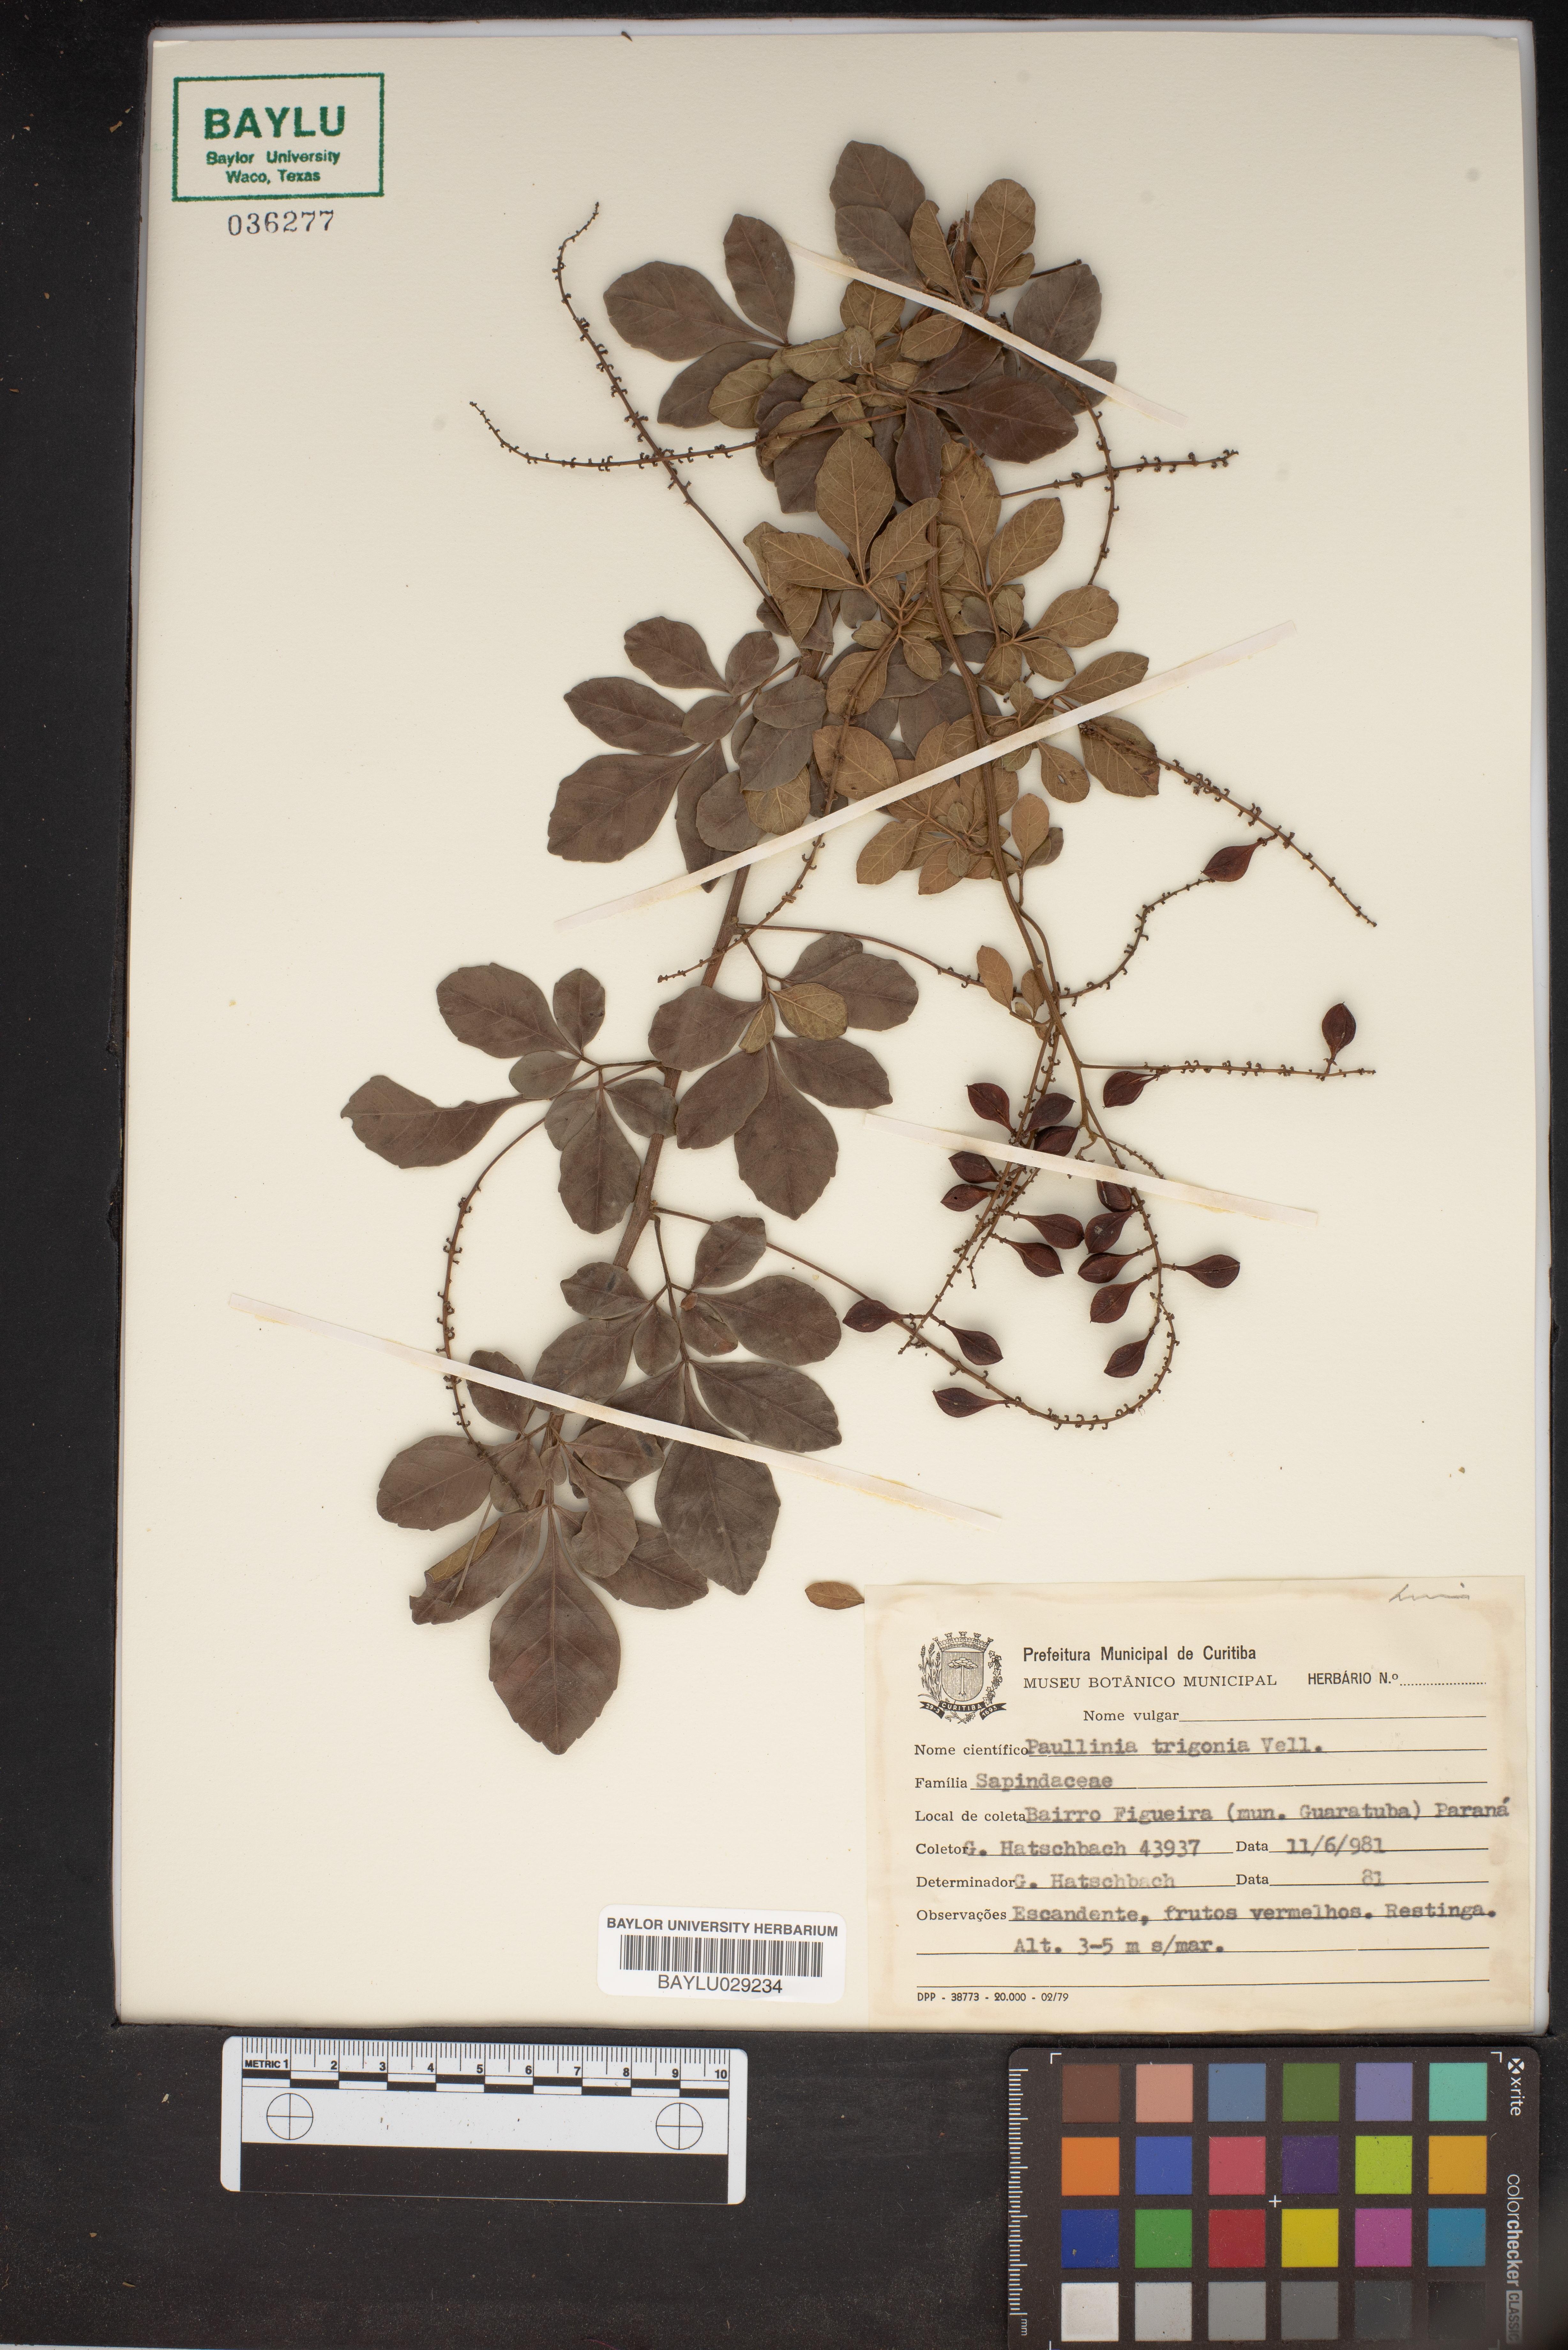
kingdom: Plantae
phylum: Tracheophyta
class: Magnoliopsida
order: Sapindales
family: Sapindaceae
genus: Paullinia
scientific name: Paullinia trigonia
